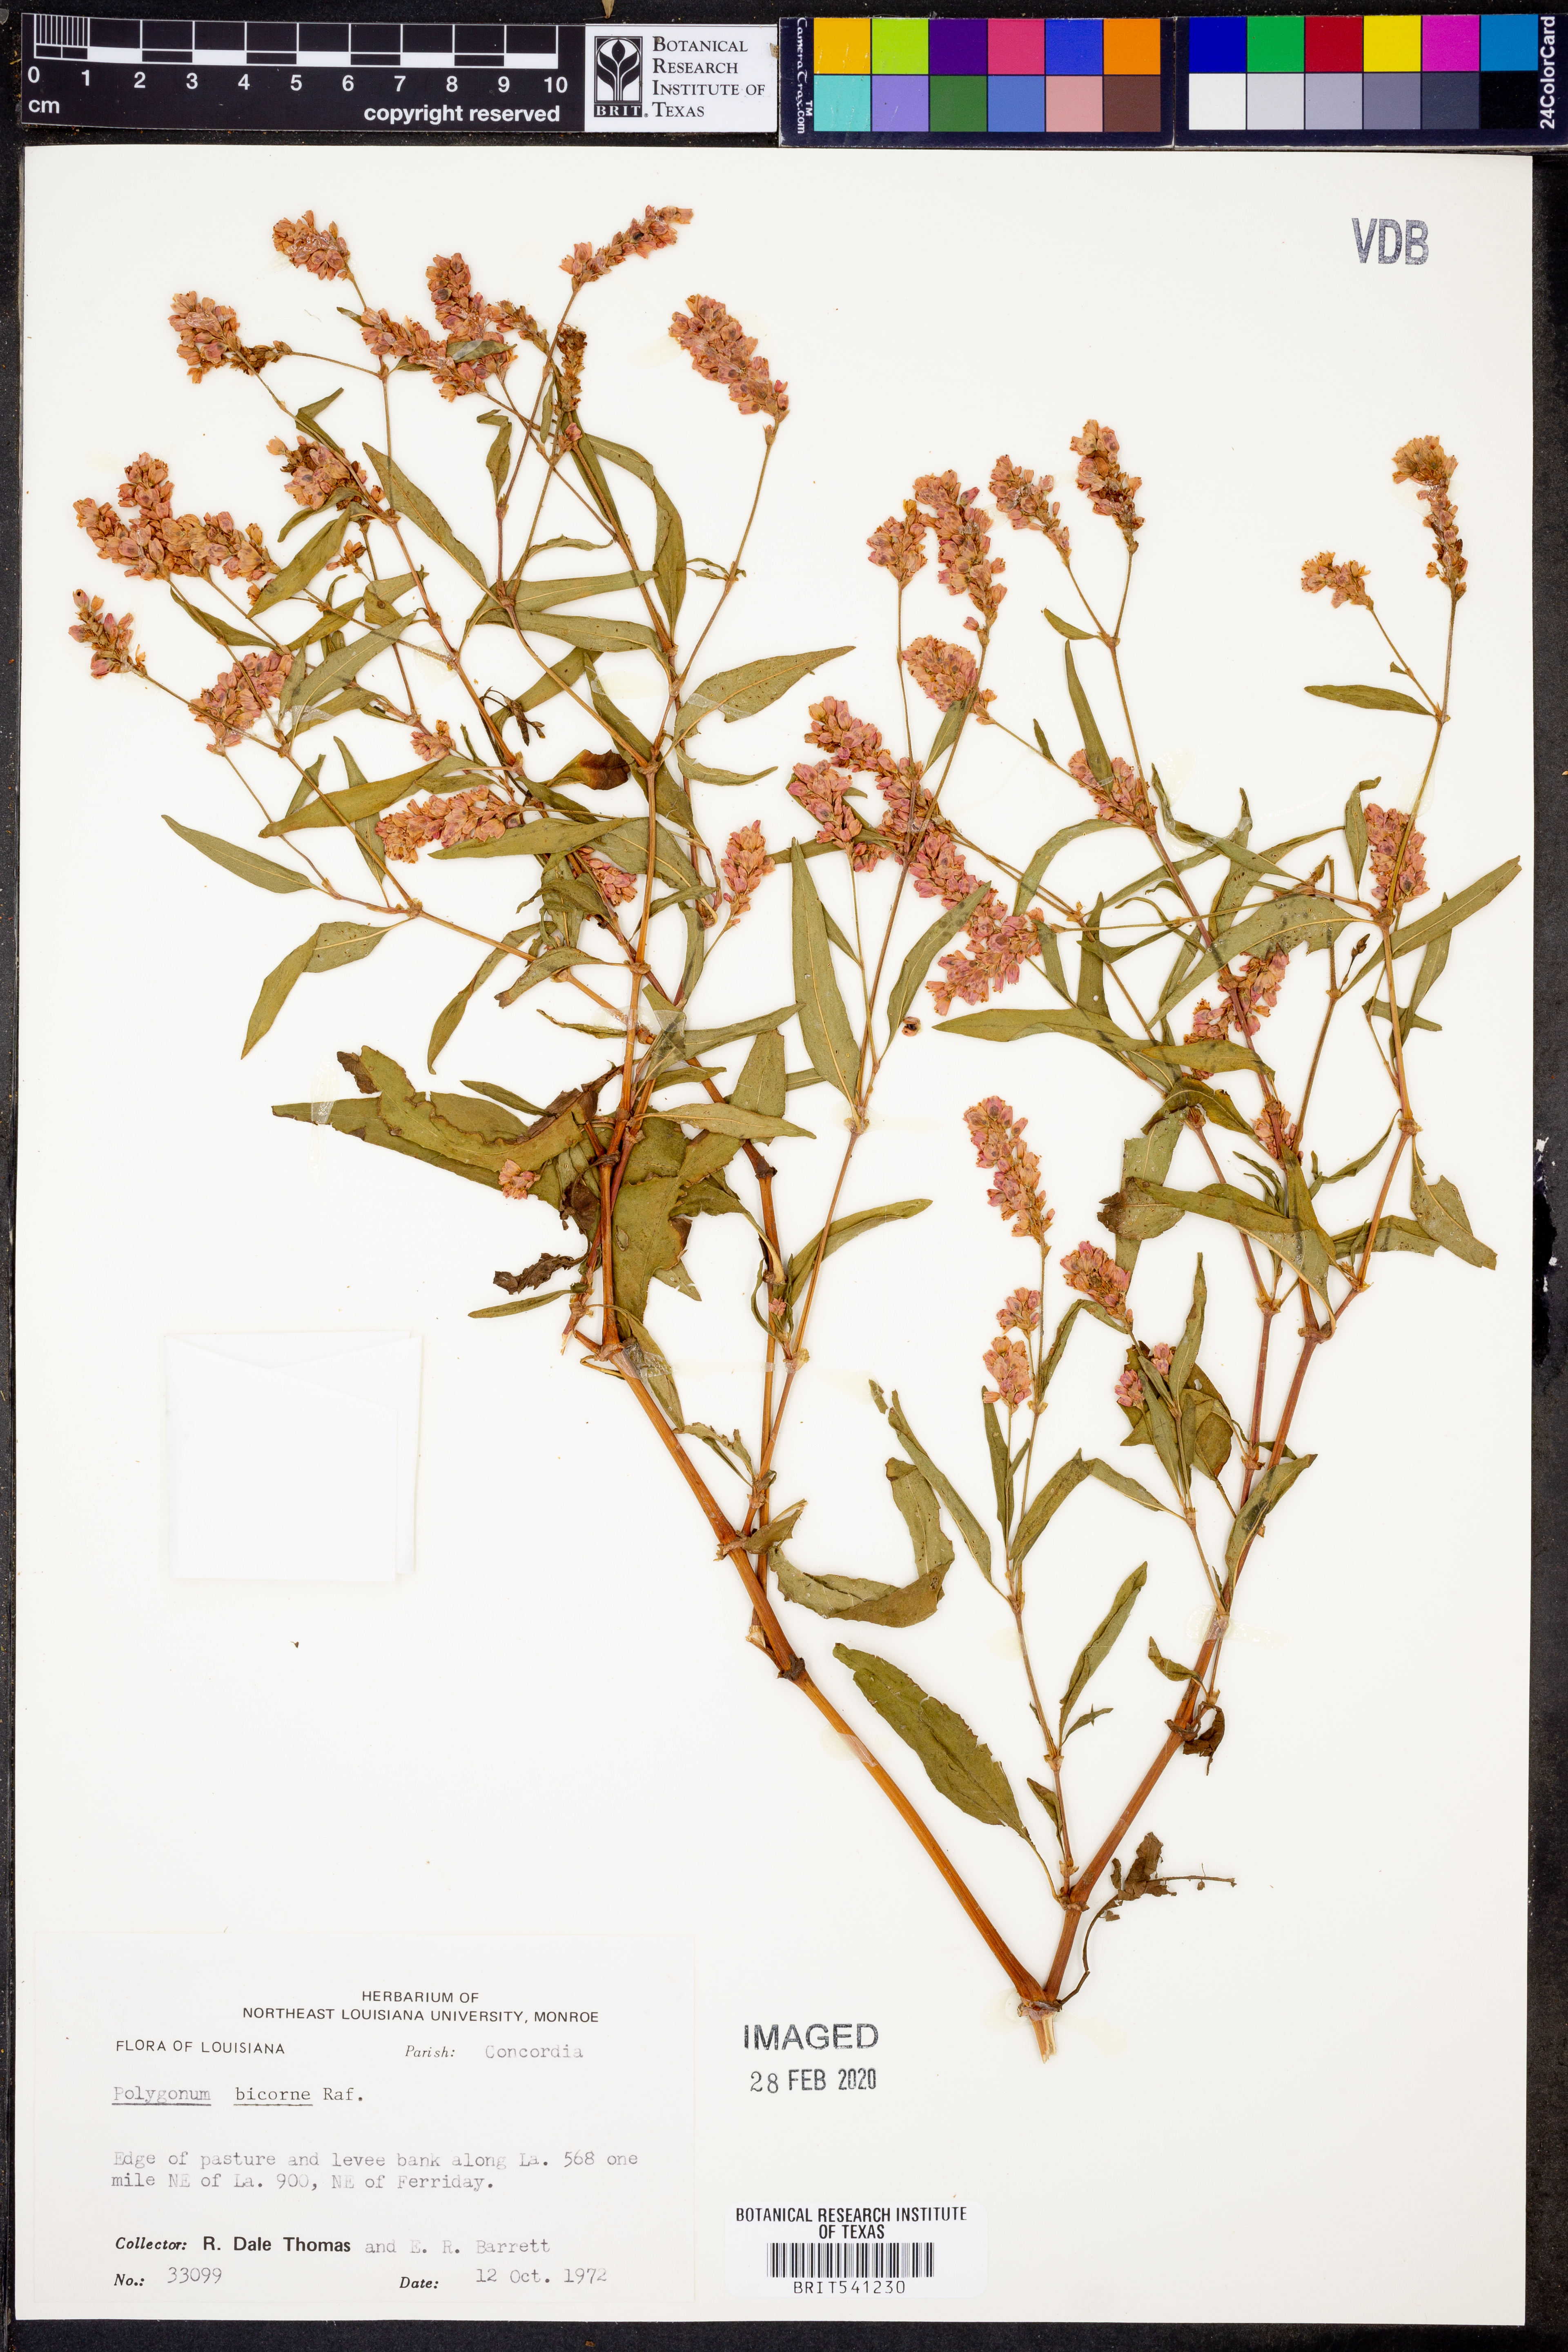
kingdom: Plantae
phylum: Tracheophyta
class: Magnoliopsida
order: Caryophyllales
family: Polygonaceae
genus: Persicaria
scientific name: Persicaria bicornis
